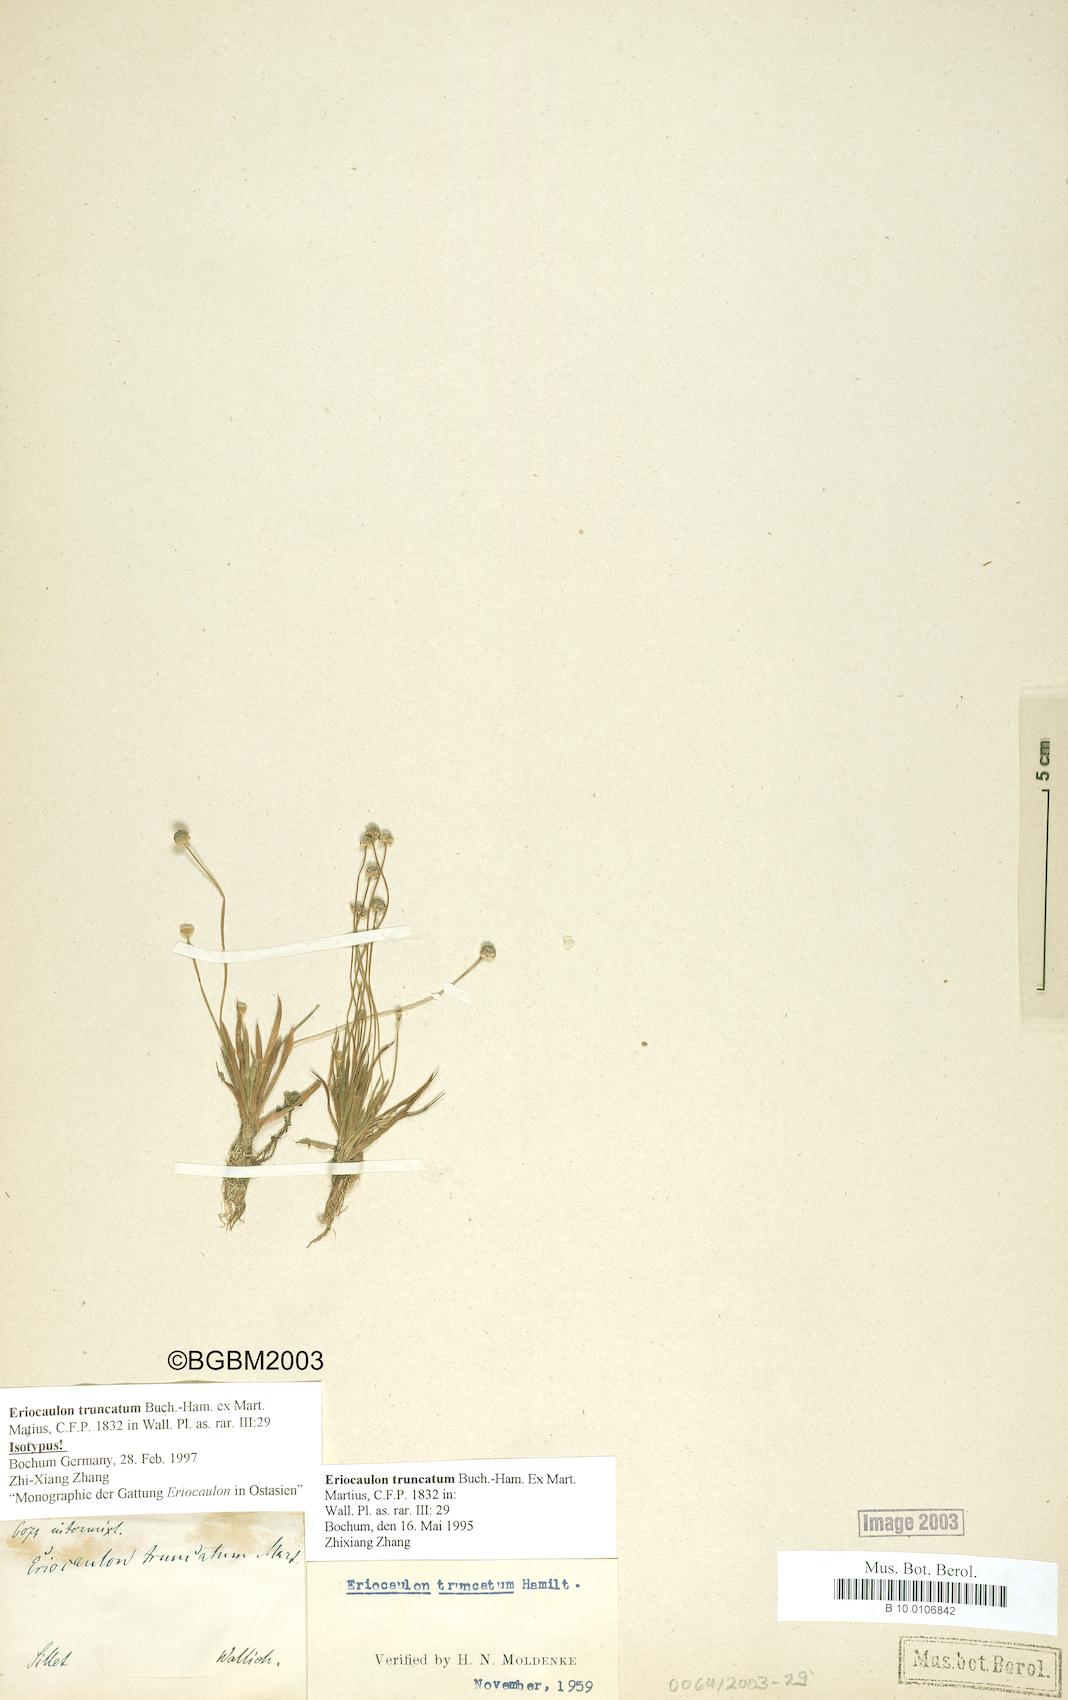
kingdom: Plantae
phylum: Tracheophyta
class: Liliopsida
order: Poales
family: Eriocaulaceae
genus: Eriocaulon
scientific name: Eriocaulon truncatum
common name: Short pipe-wort
